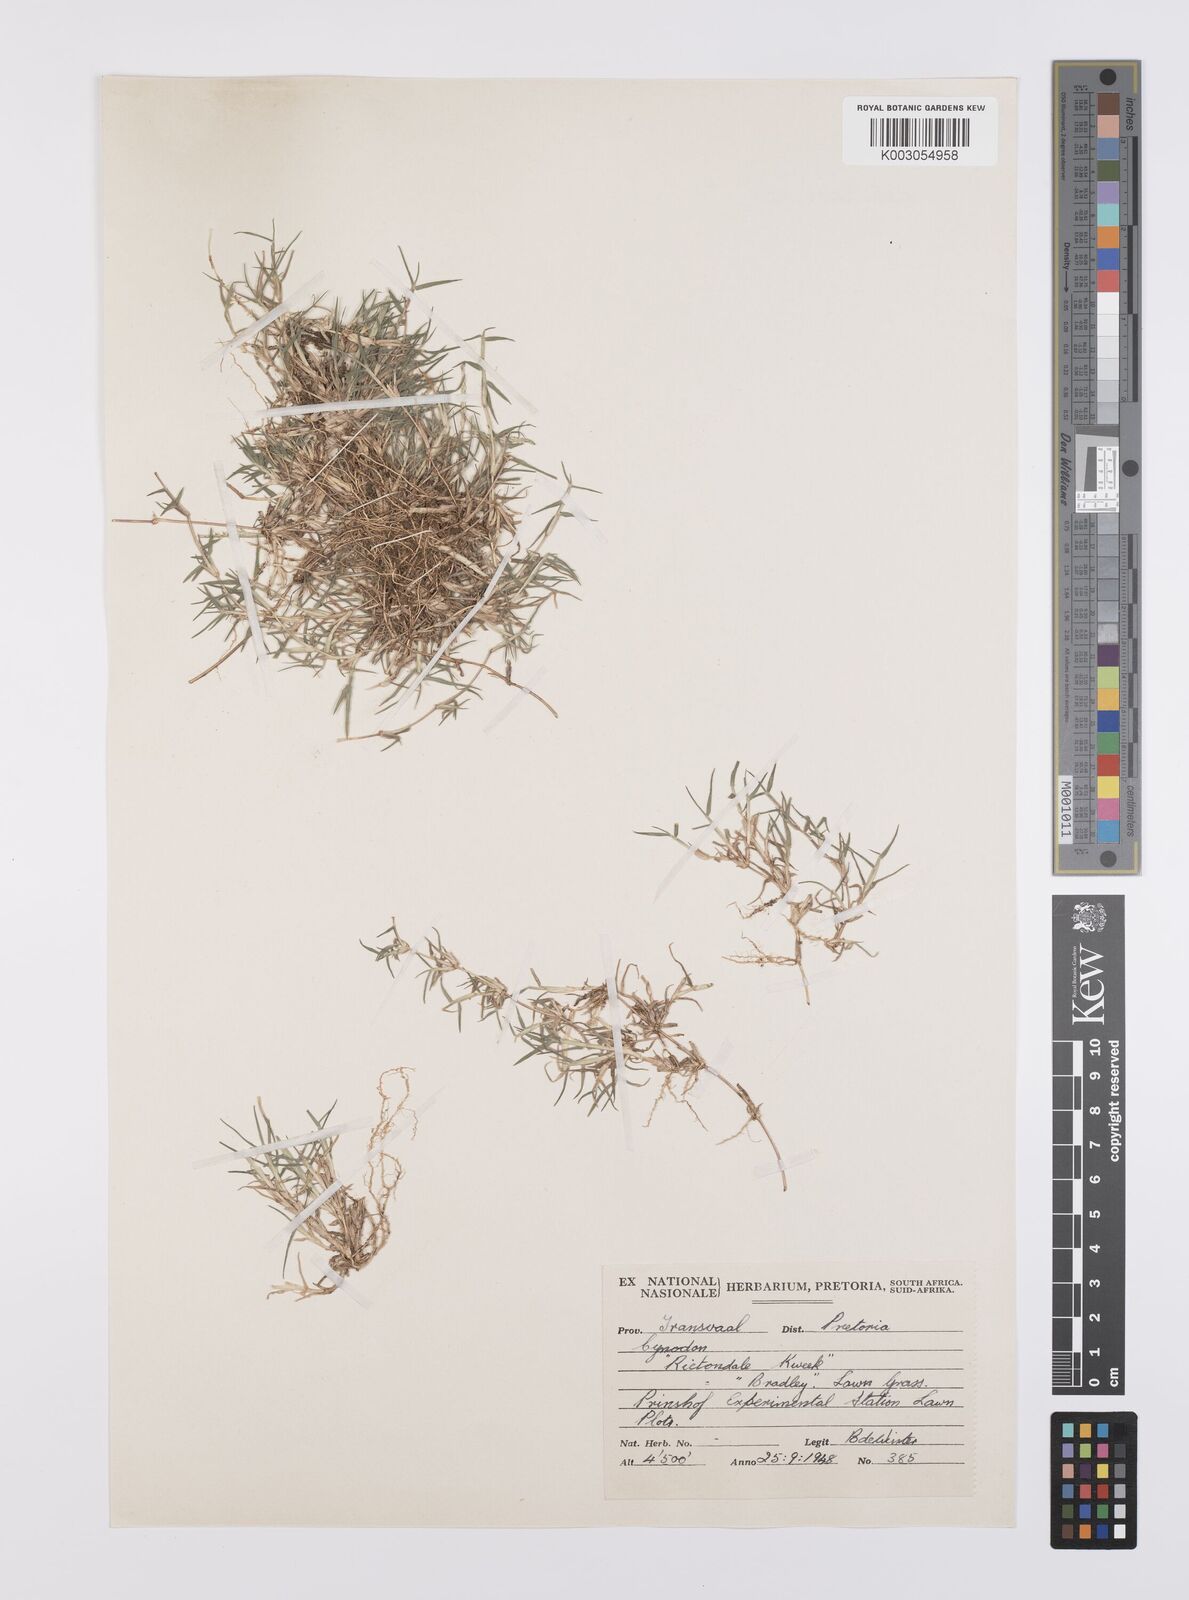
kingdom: Plantae
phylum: Tracheophyta
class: Liliopsida
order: Poales
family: Poaceae
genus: Cynodon
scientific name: Cynodon incompletus
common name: African bermuda-grass
